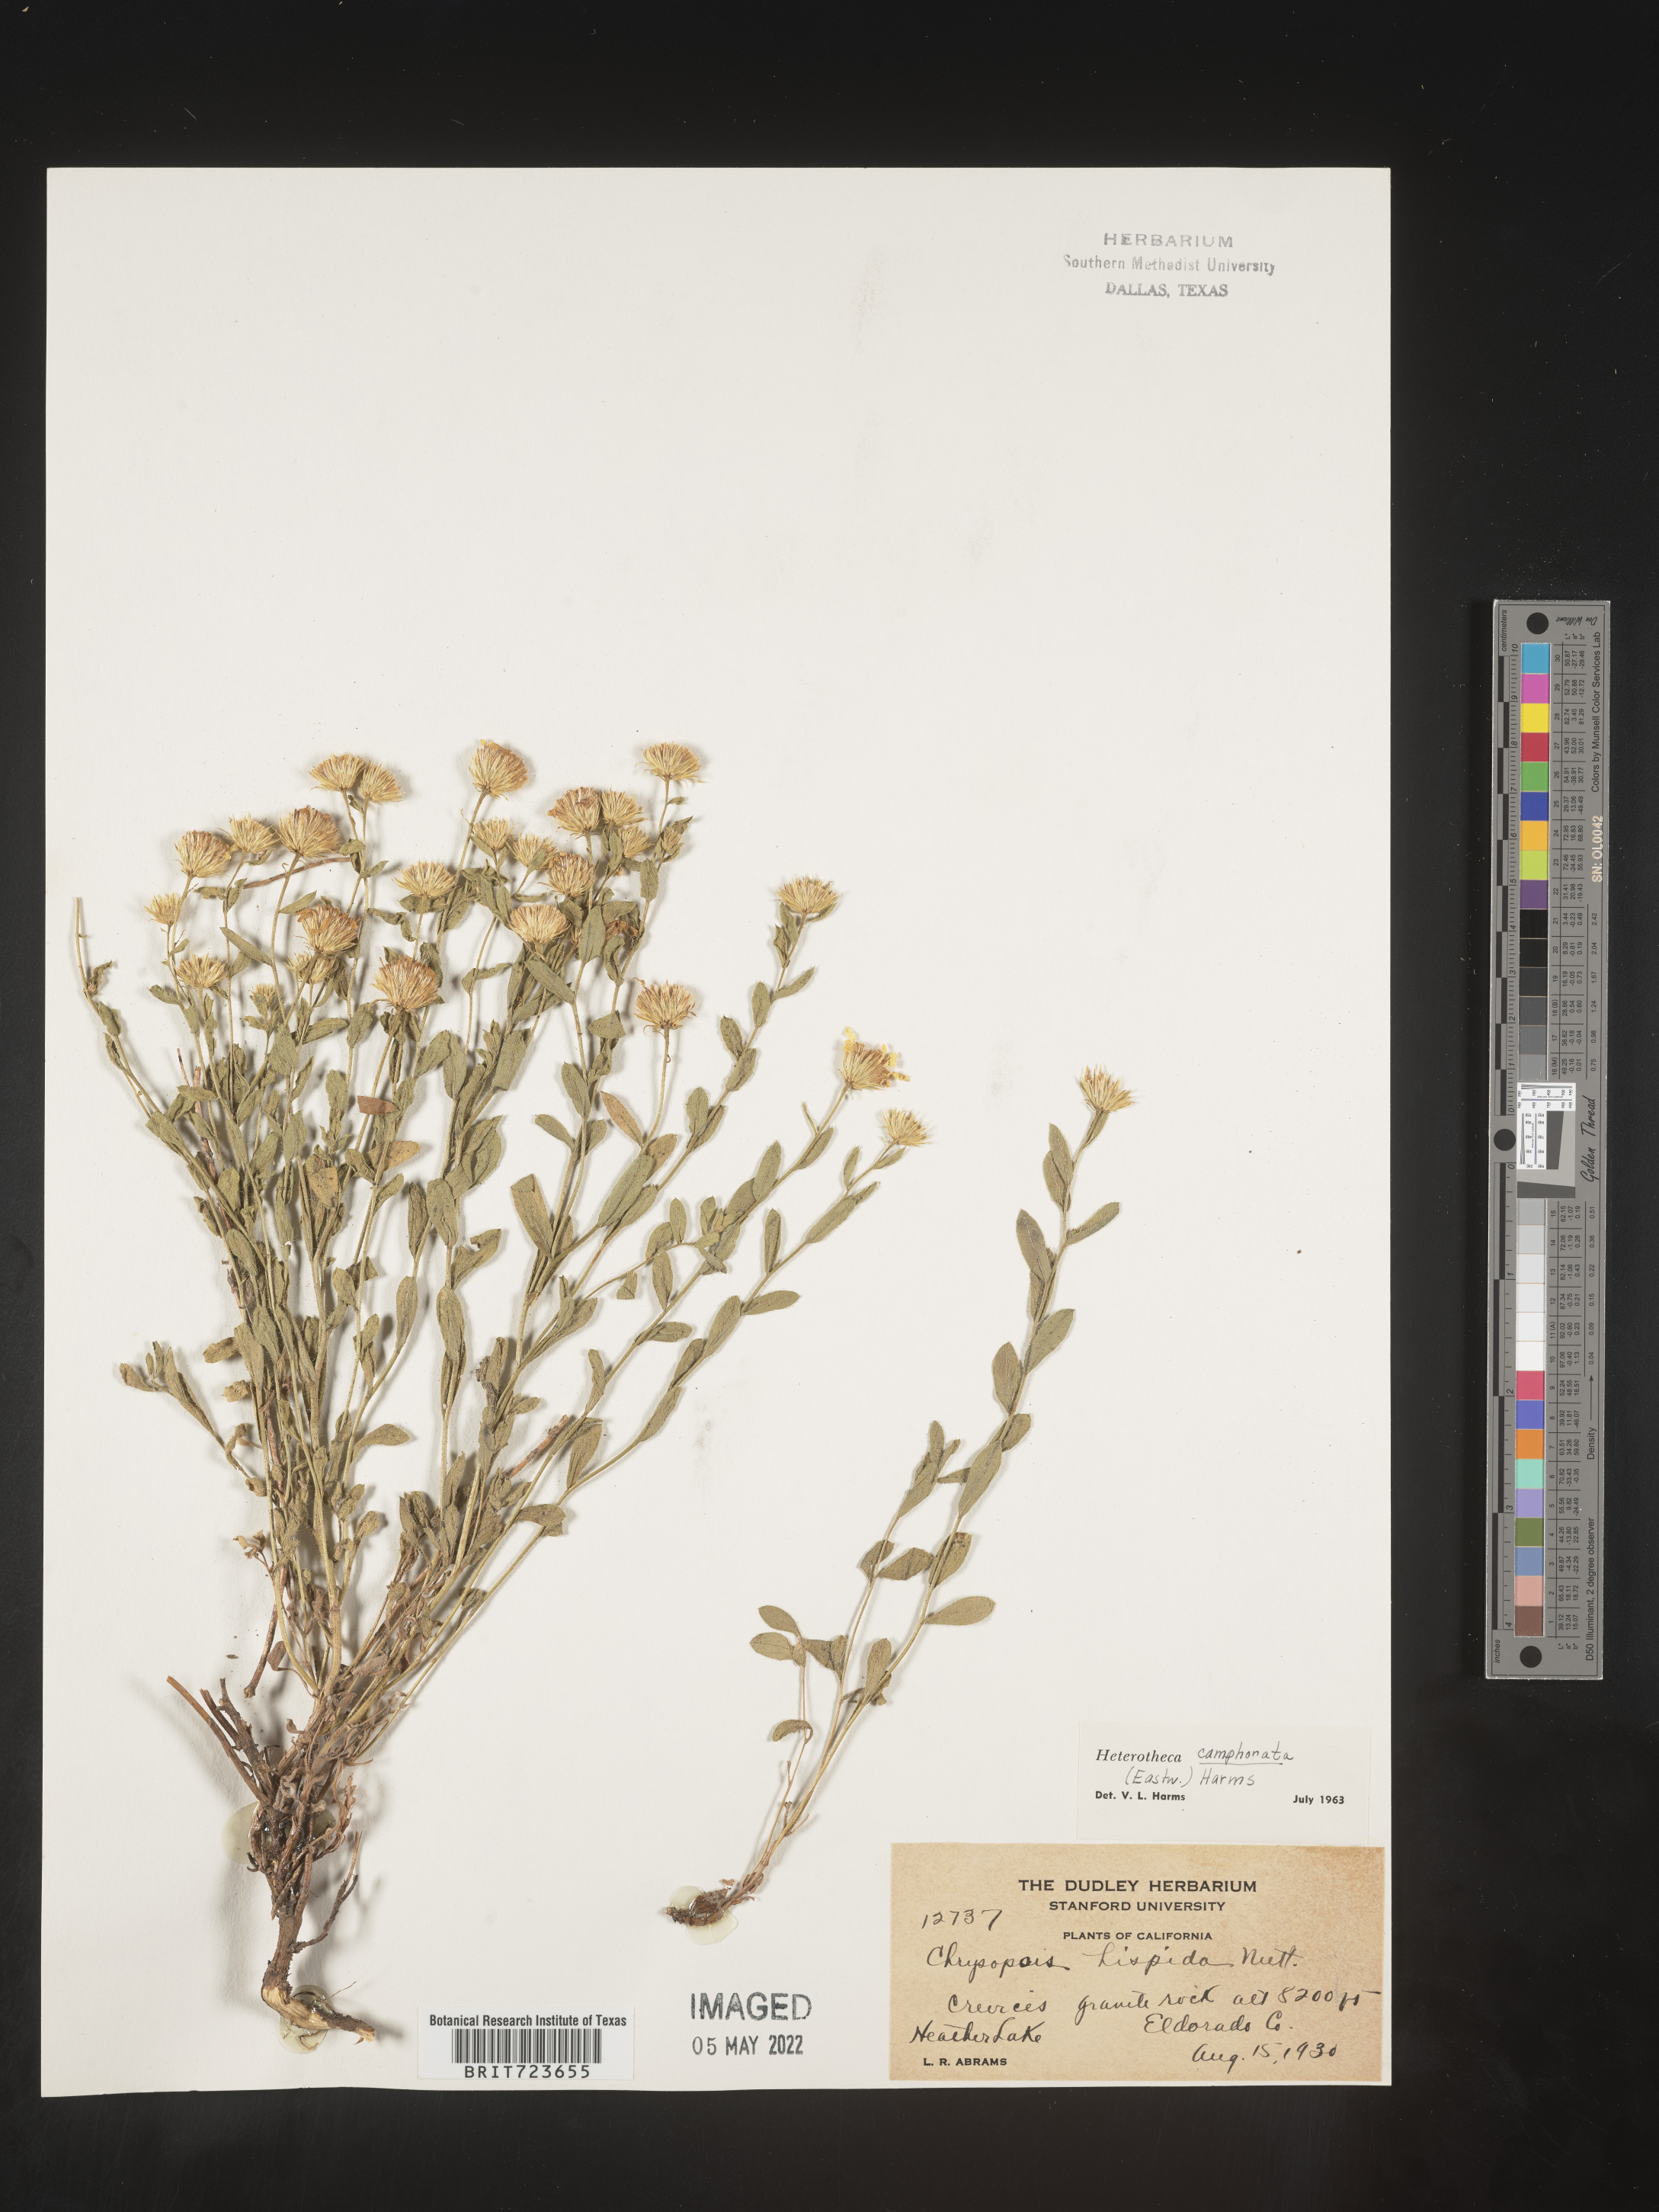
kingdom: Plantae
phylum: Tracheophyta
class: Magnoliopsida
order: Asterales
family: Asteraceae
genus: Heterotheca
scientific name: Heterotheca camphorata
